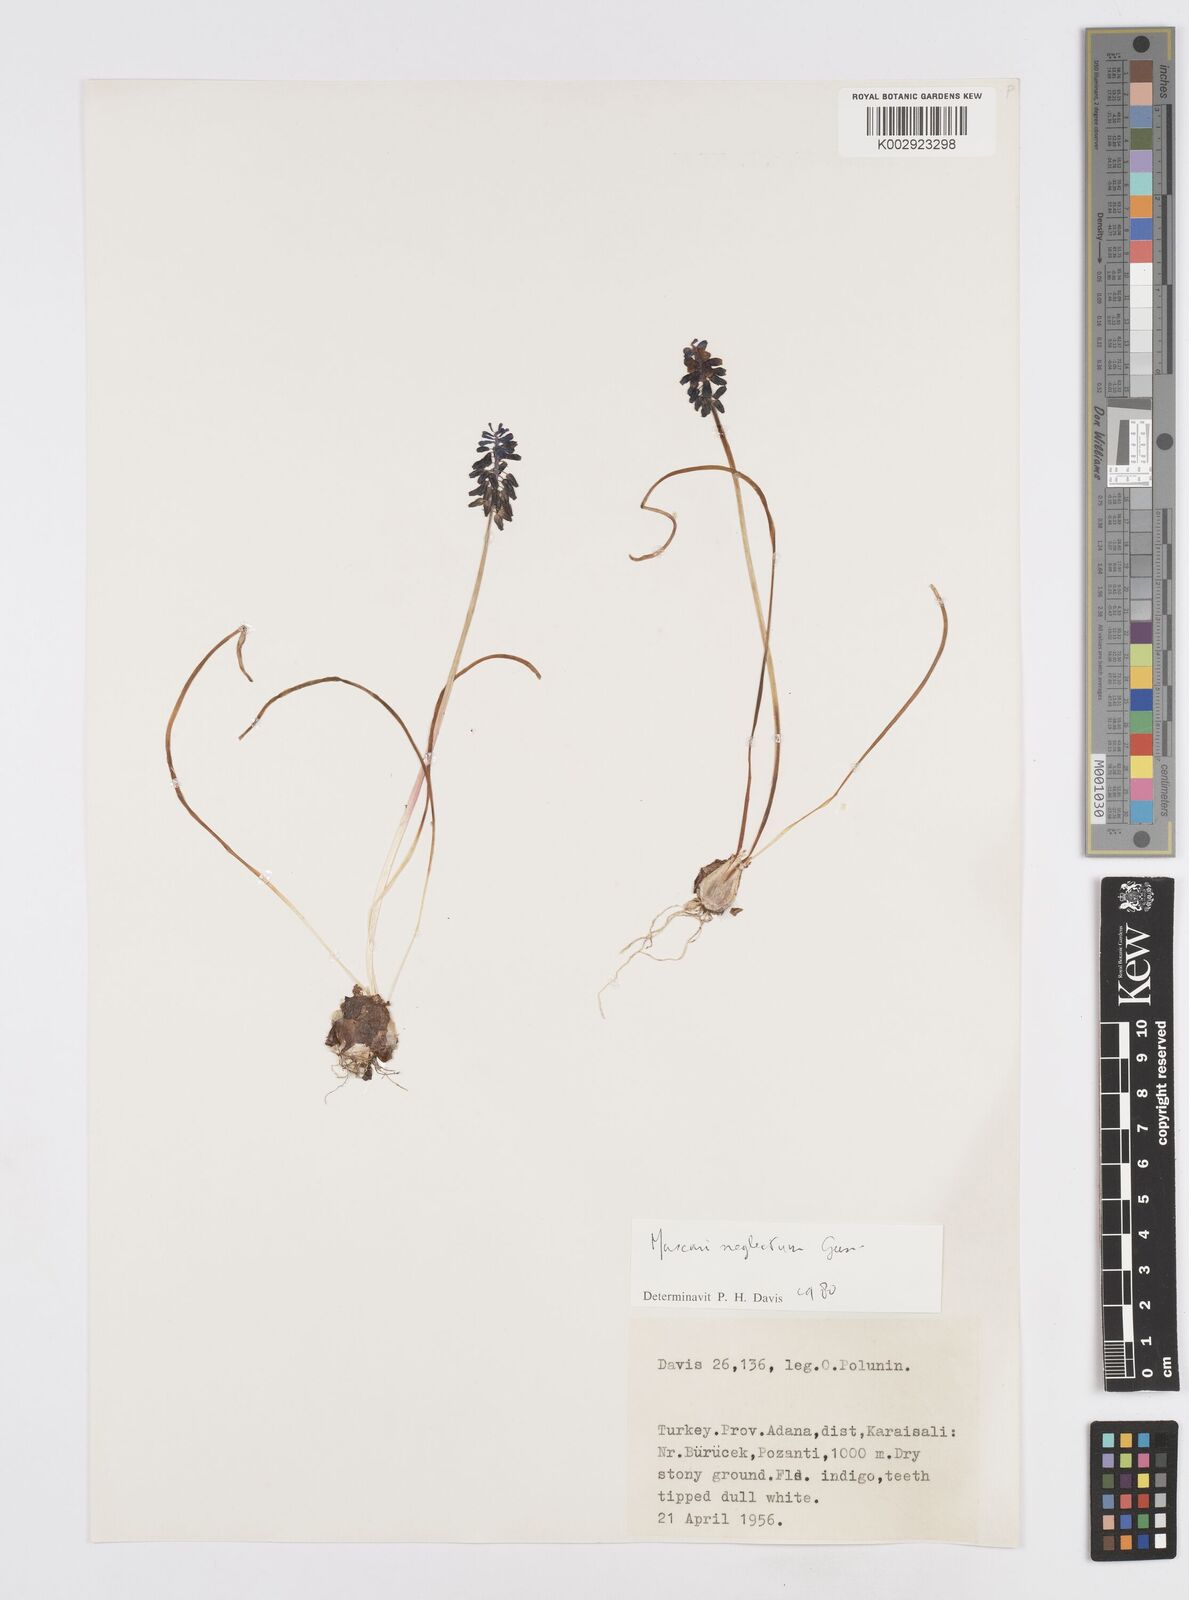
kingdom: Plantae
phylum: Tracheophyta
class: Liliopsida
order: Asparagales
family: Asparagaceae
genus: Muscari
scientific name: Muscari neglectum
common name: Grape-hyacinth
